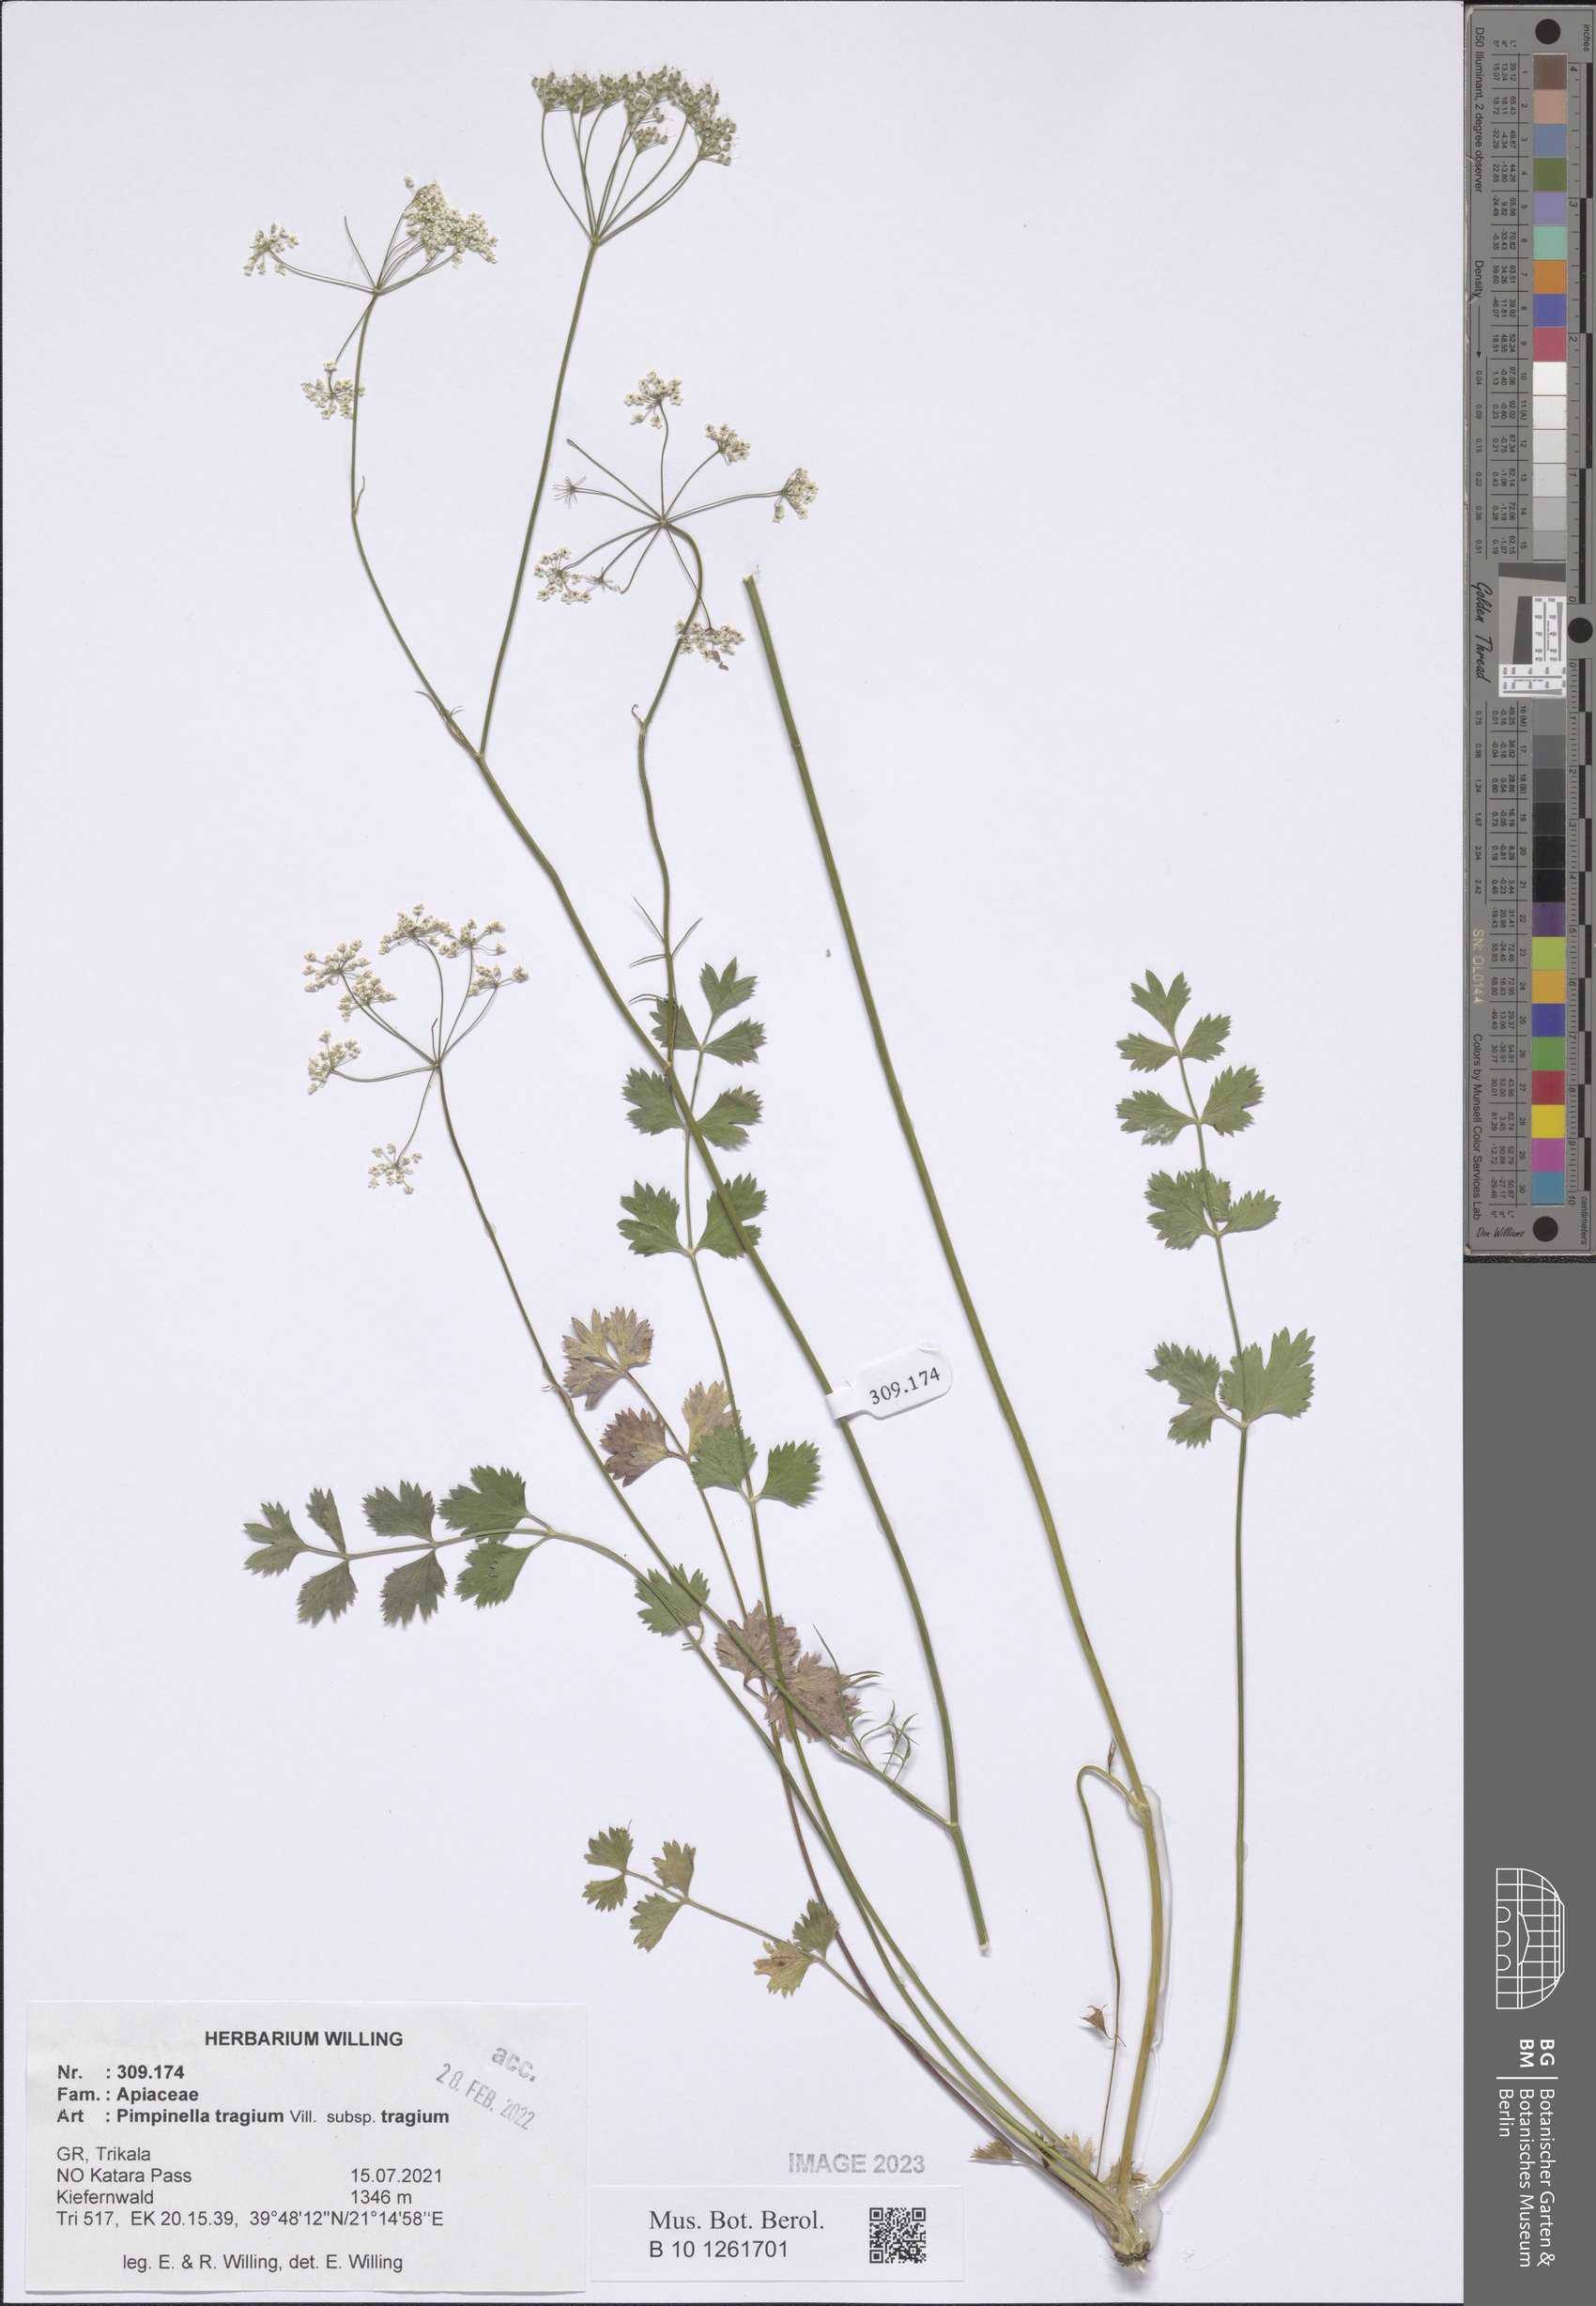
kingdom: Plantae
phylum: Tracheophyta
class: Magnoliopsida
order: Apiales
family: Apiaceae
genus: Pimpinella
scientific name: Pimpinella tragium
